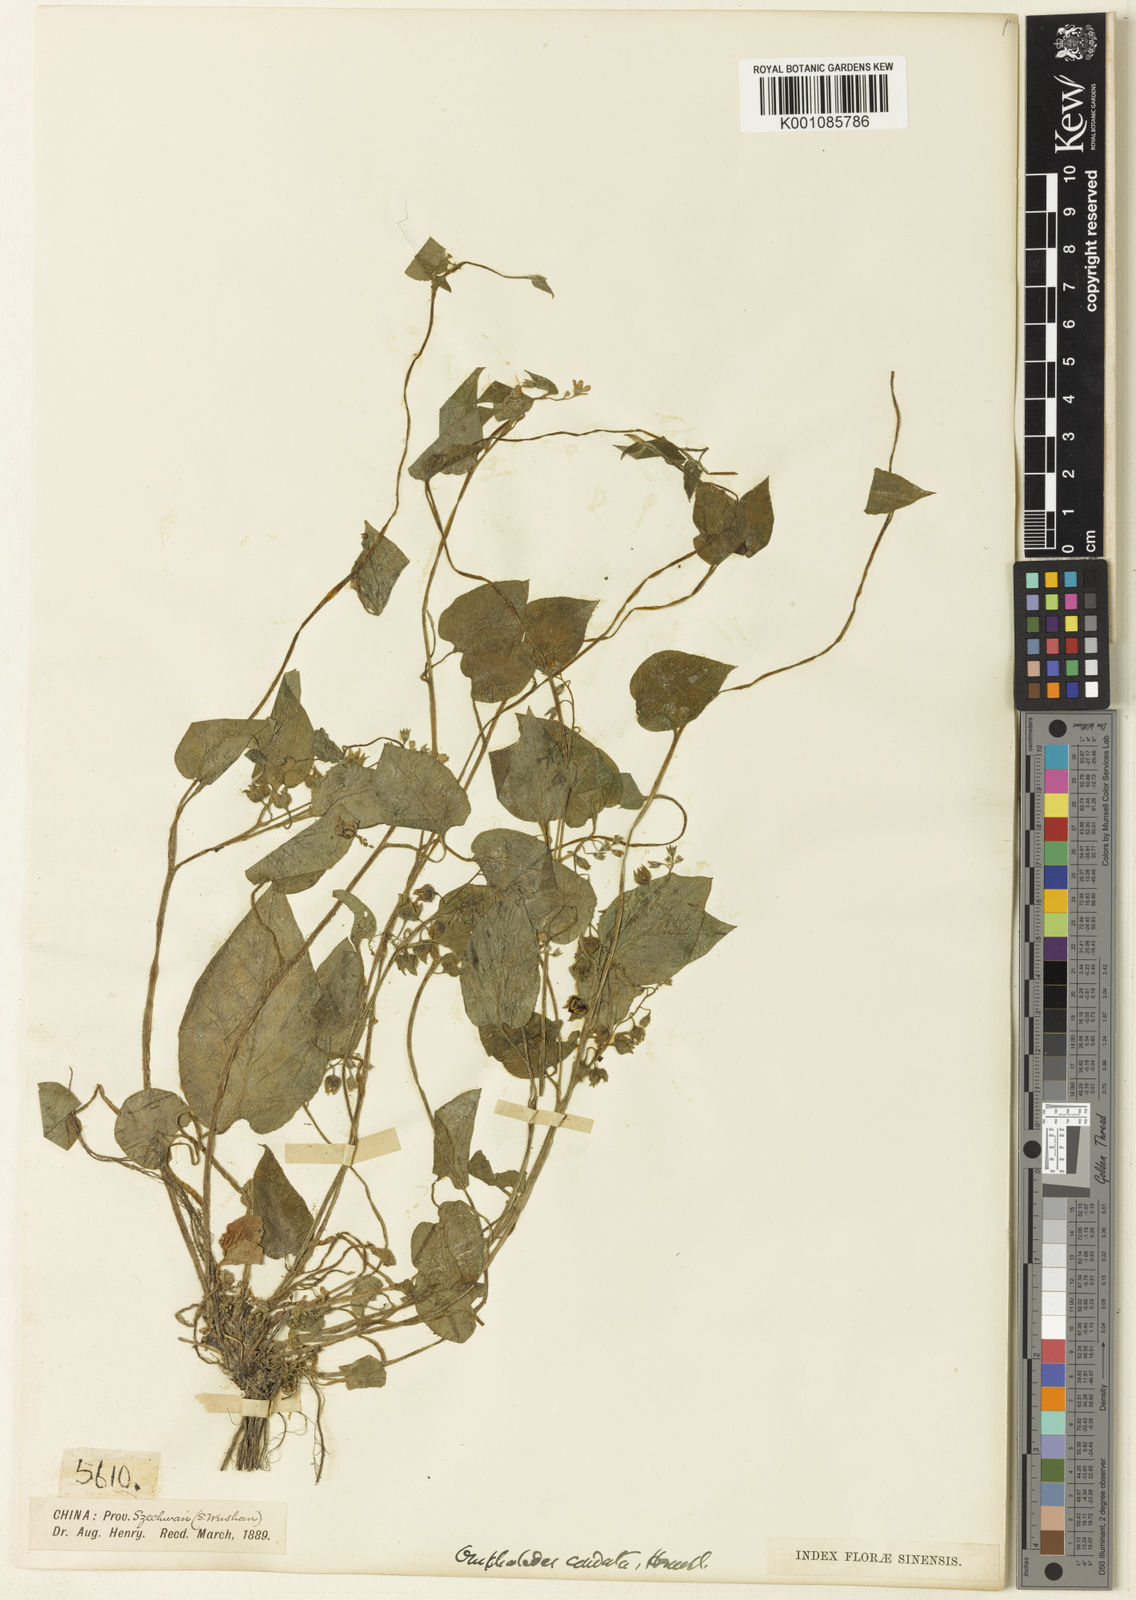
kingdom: Plantae
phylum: Tracheophyta
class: Magnoliopsida
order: Boraginales
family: Boraginaceae
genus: Trigonotis
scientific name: Trigonotis
